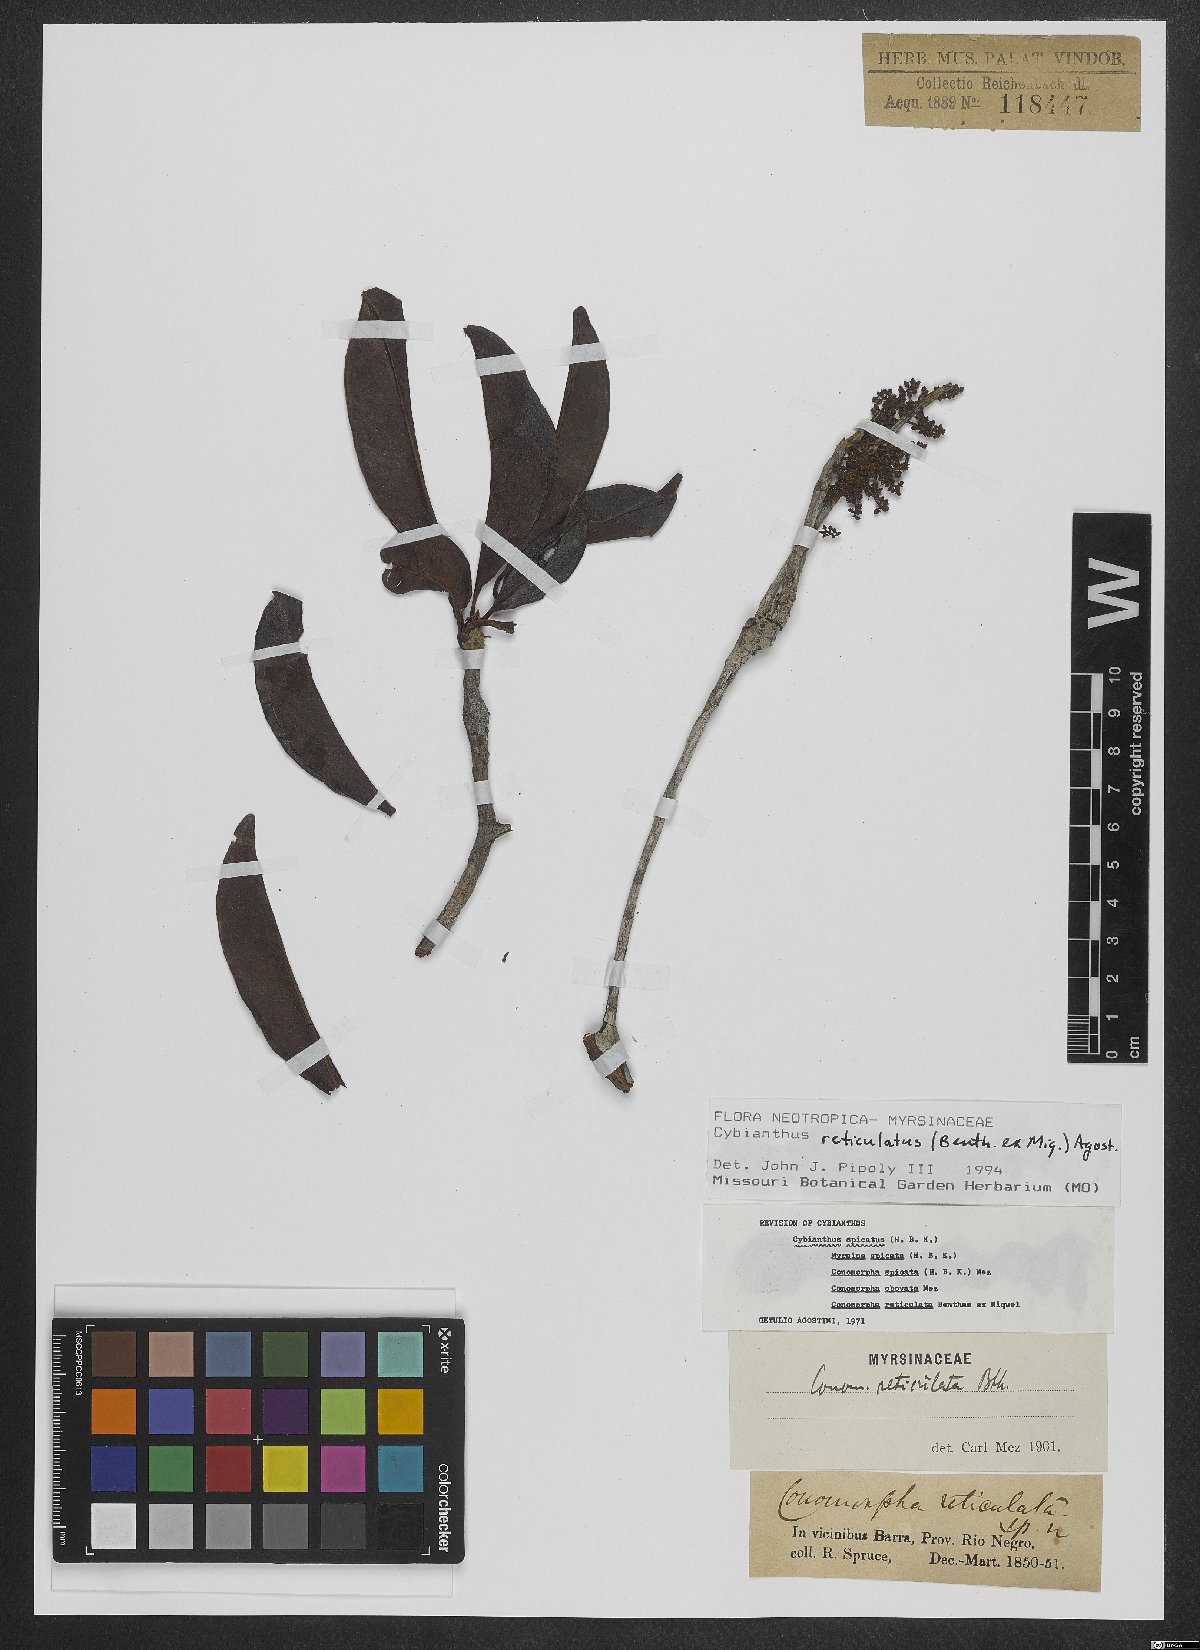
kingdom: Plantae
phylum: Tracheophyta
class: Magnoliopsida
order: Ericales
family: Primulaceae
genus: Cybianthus
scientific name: Cybianthus reticulatus
